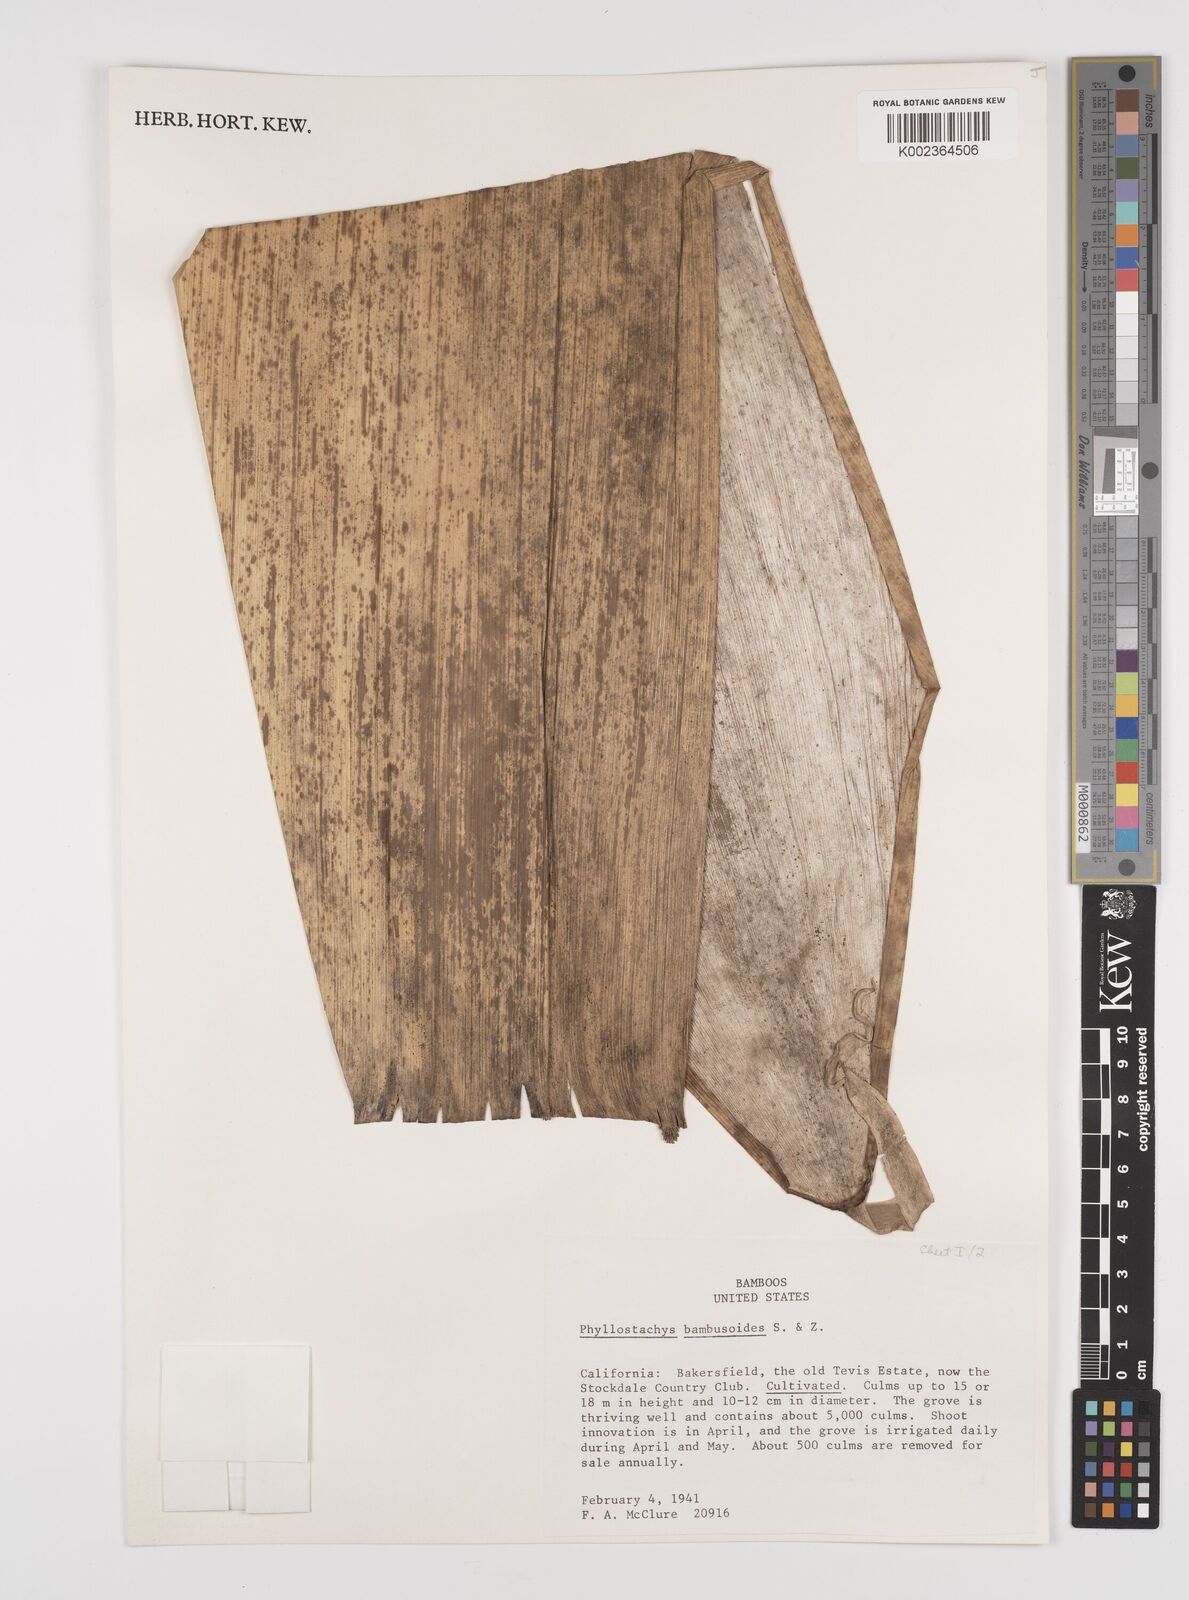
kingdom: Plantae
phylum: Tracheophyta
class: Liliopsida
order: Poales
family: Poaceae
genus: Phyllostachys
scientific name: Phyllostachys reticulata
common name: Bamboo
